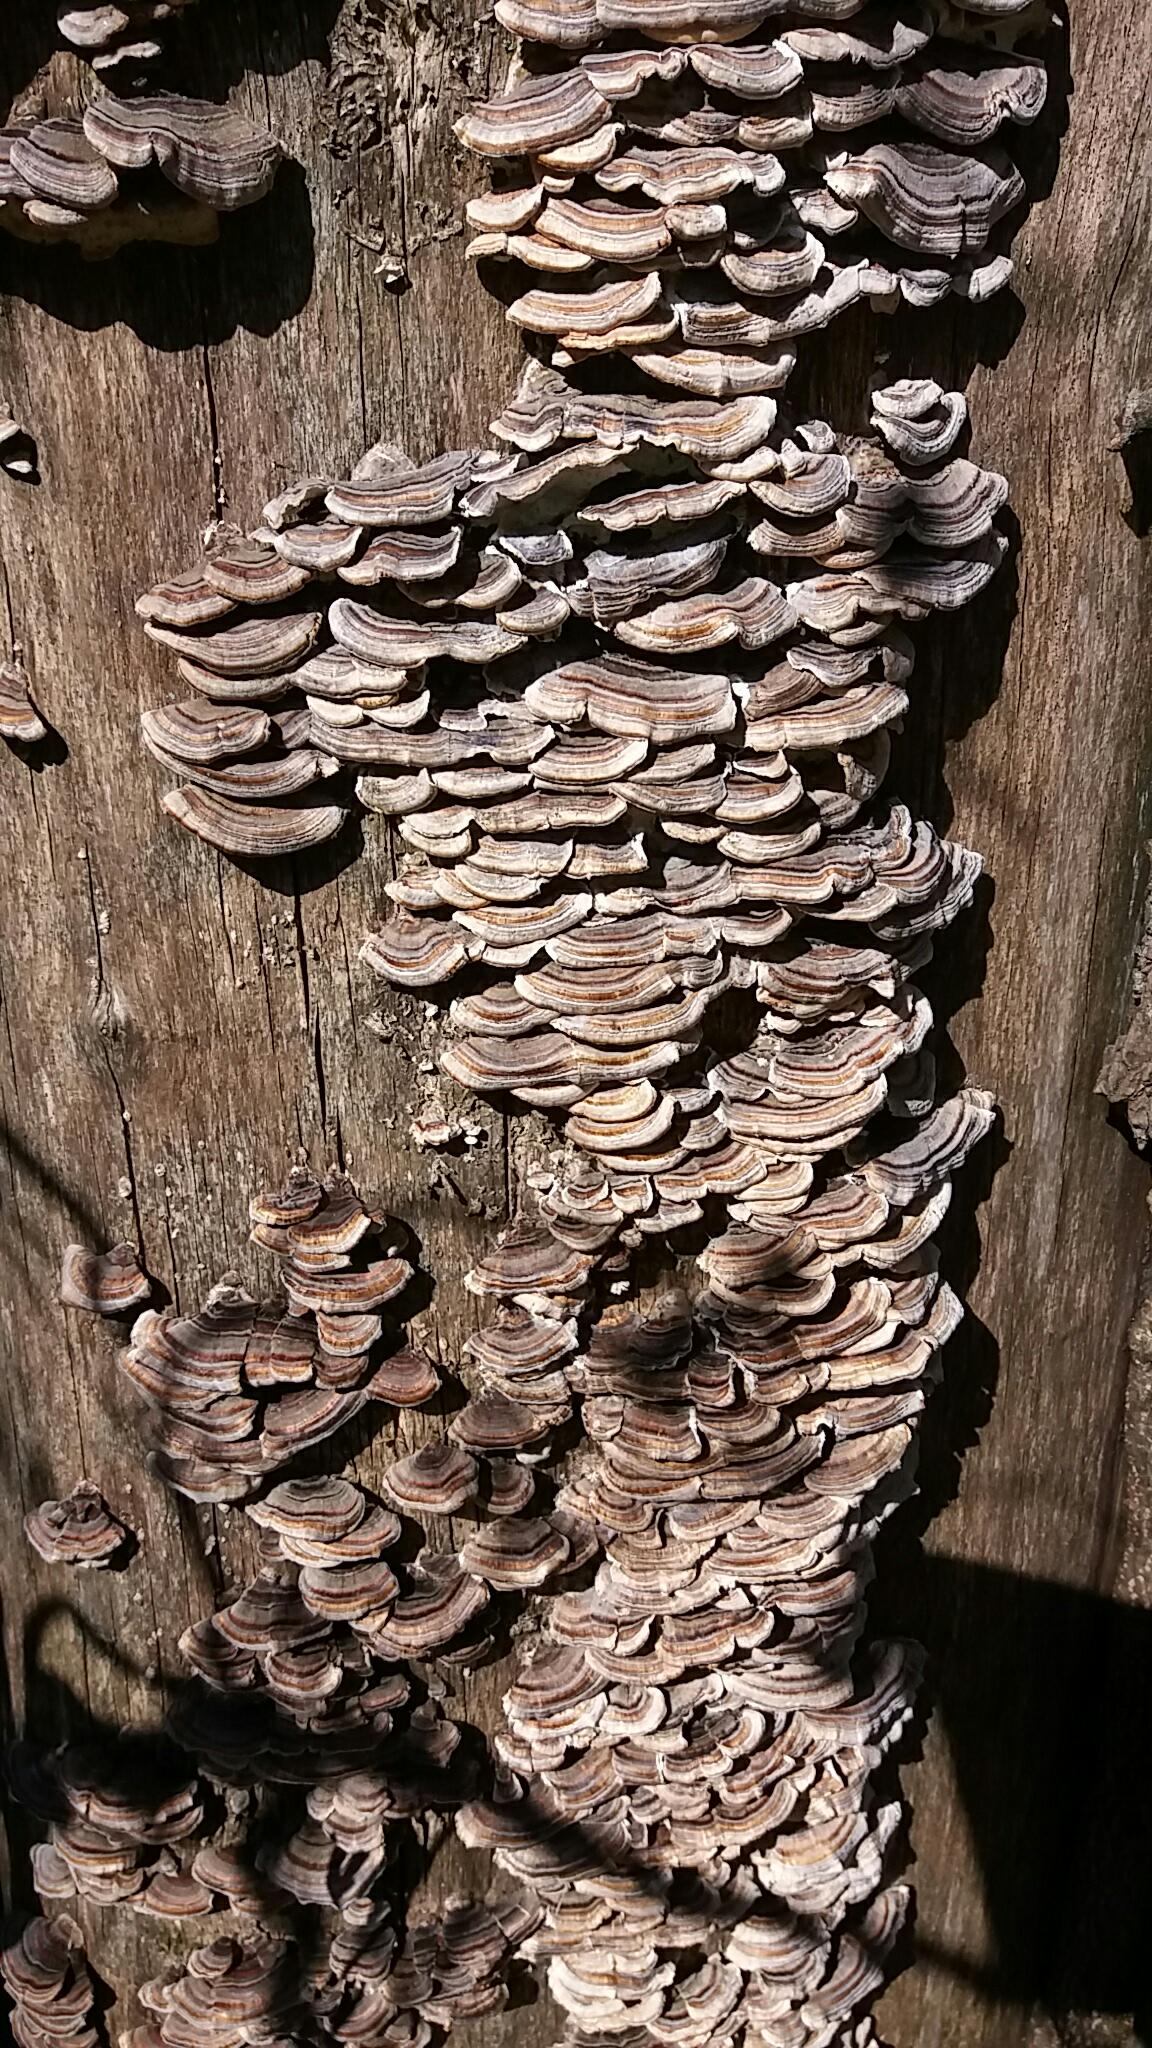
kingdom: Fungi
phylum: Basidiomycota
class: Agaricomycetes
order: Polyporales
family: Polyporaceae
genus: Trametes
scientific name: Trametes versicolor
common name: broget læderporesvamp
